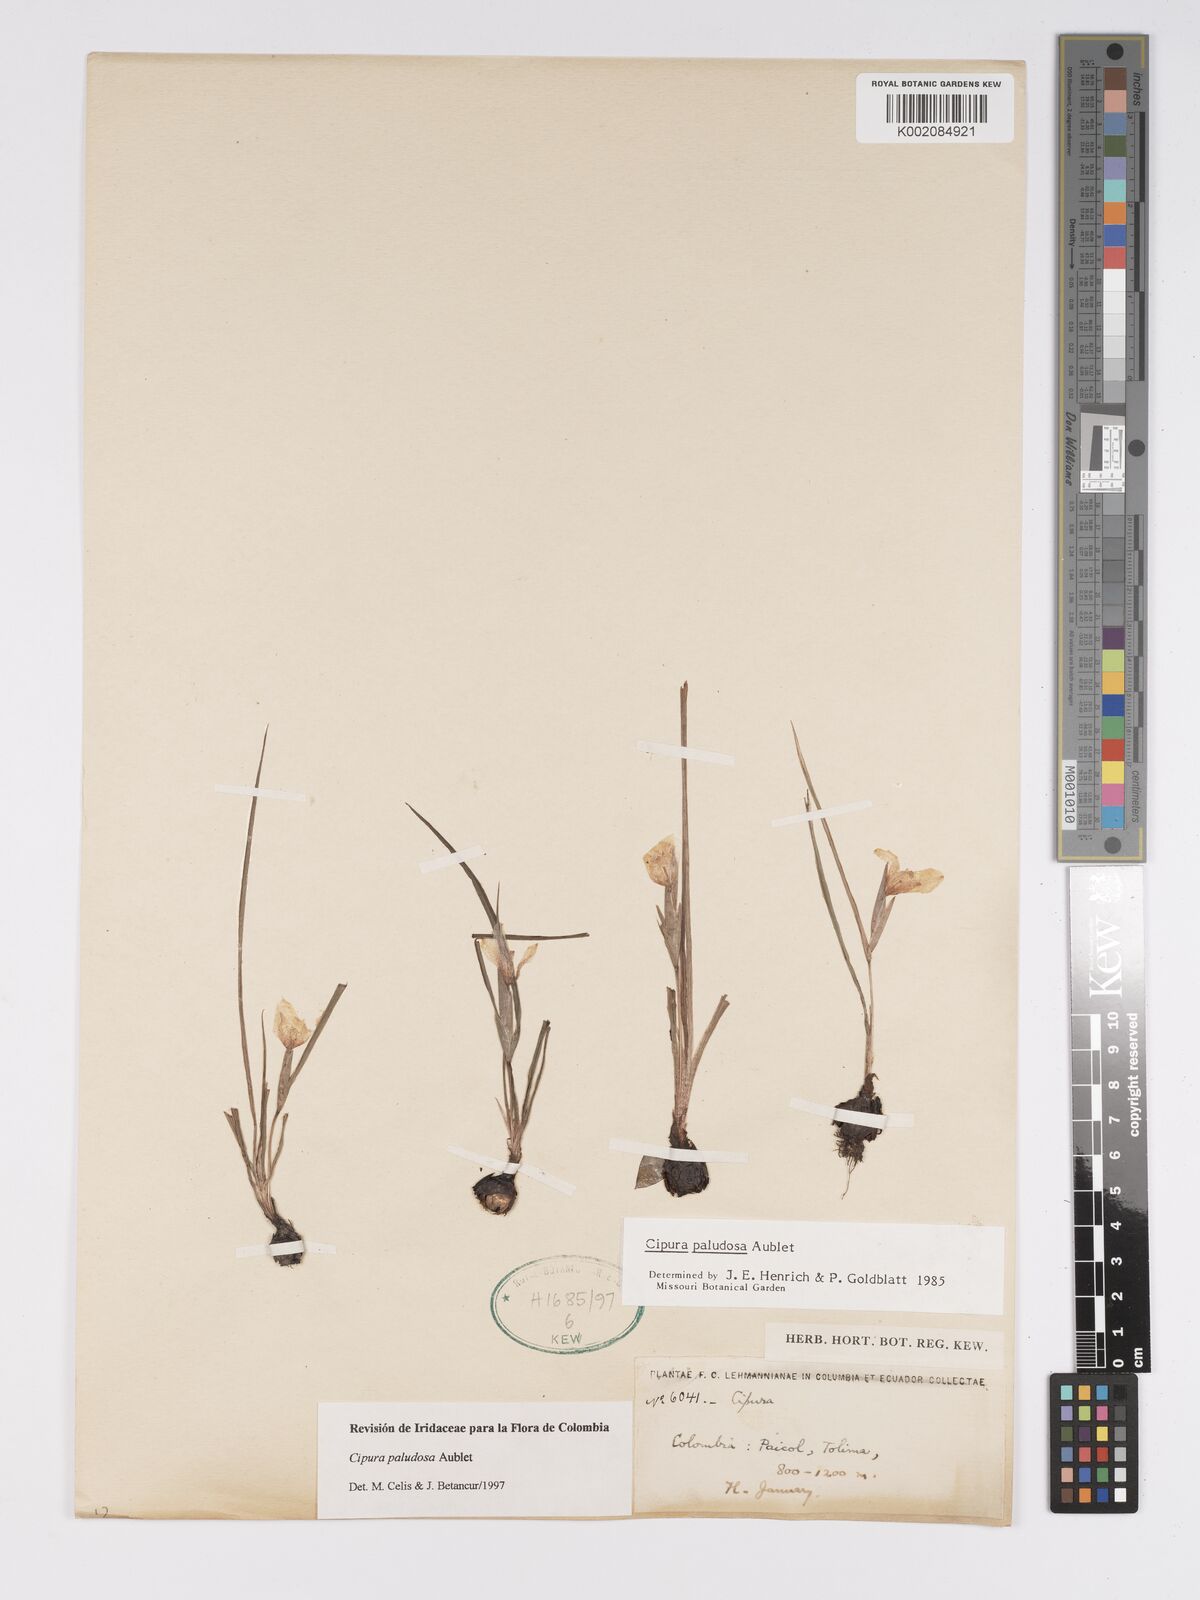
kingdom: Plantae
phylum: Tracheophyta
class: Liliopsida
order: Asparagales
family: Iridaceae
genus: Cipura
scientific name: Cipura paludosa
